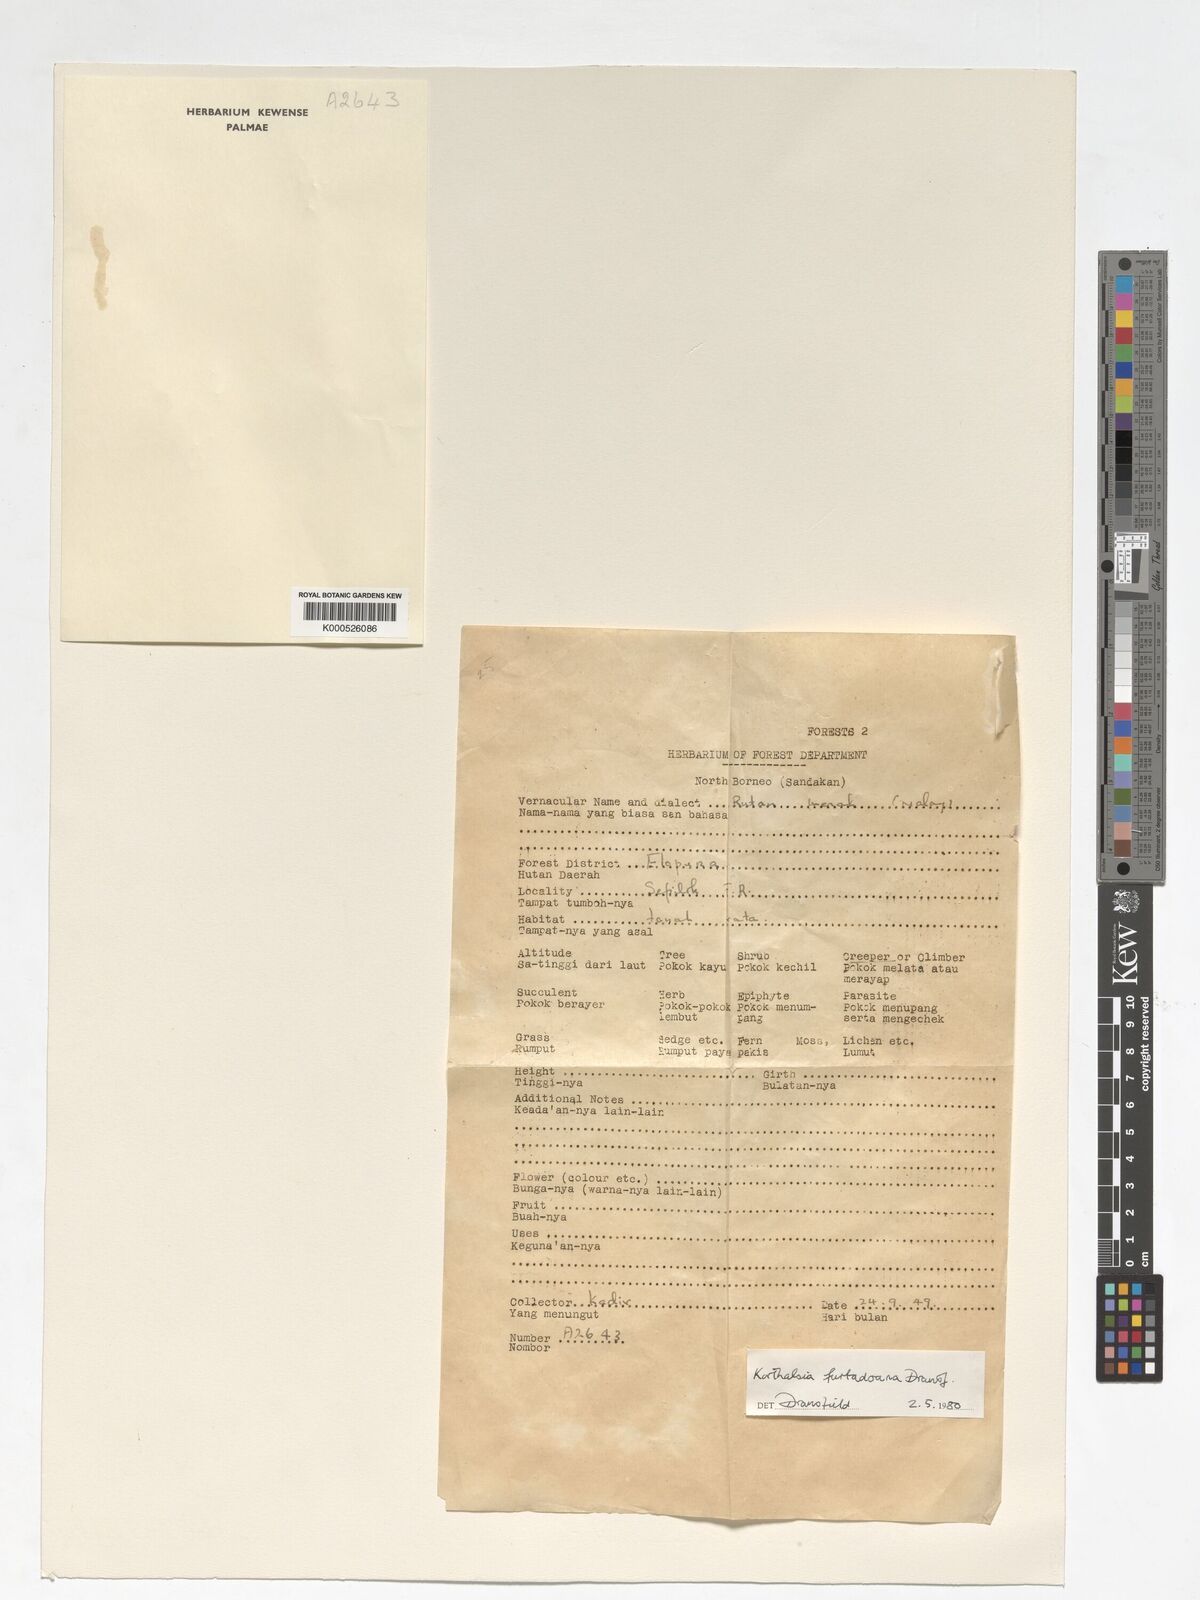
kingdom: Plantae
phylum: Tracheophyta
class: Liliopsida
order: Arecales
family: Arecaceae
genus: Korthalsia
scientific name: Korthalsia furtadoana
